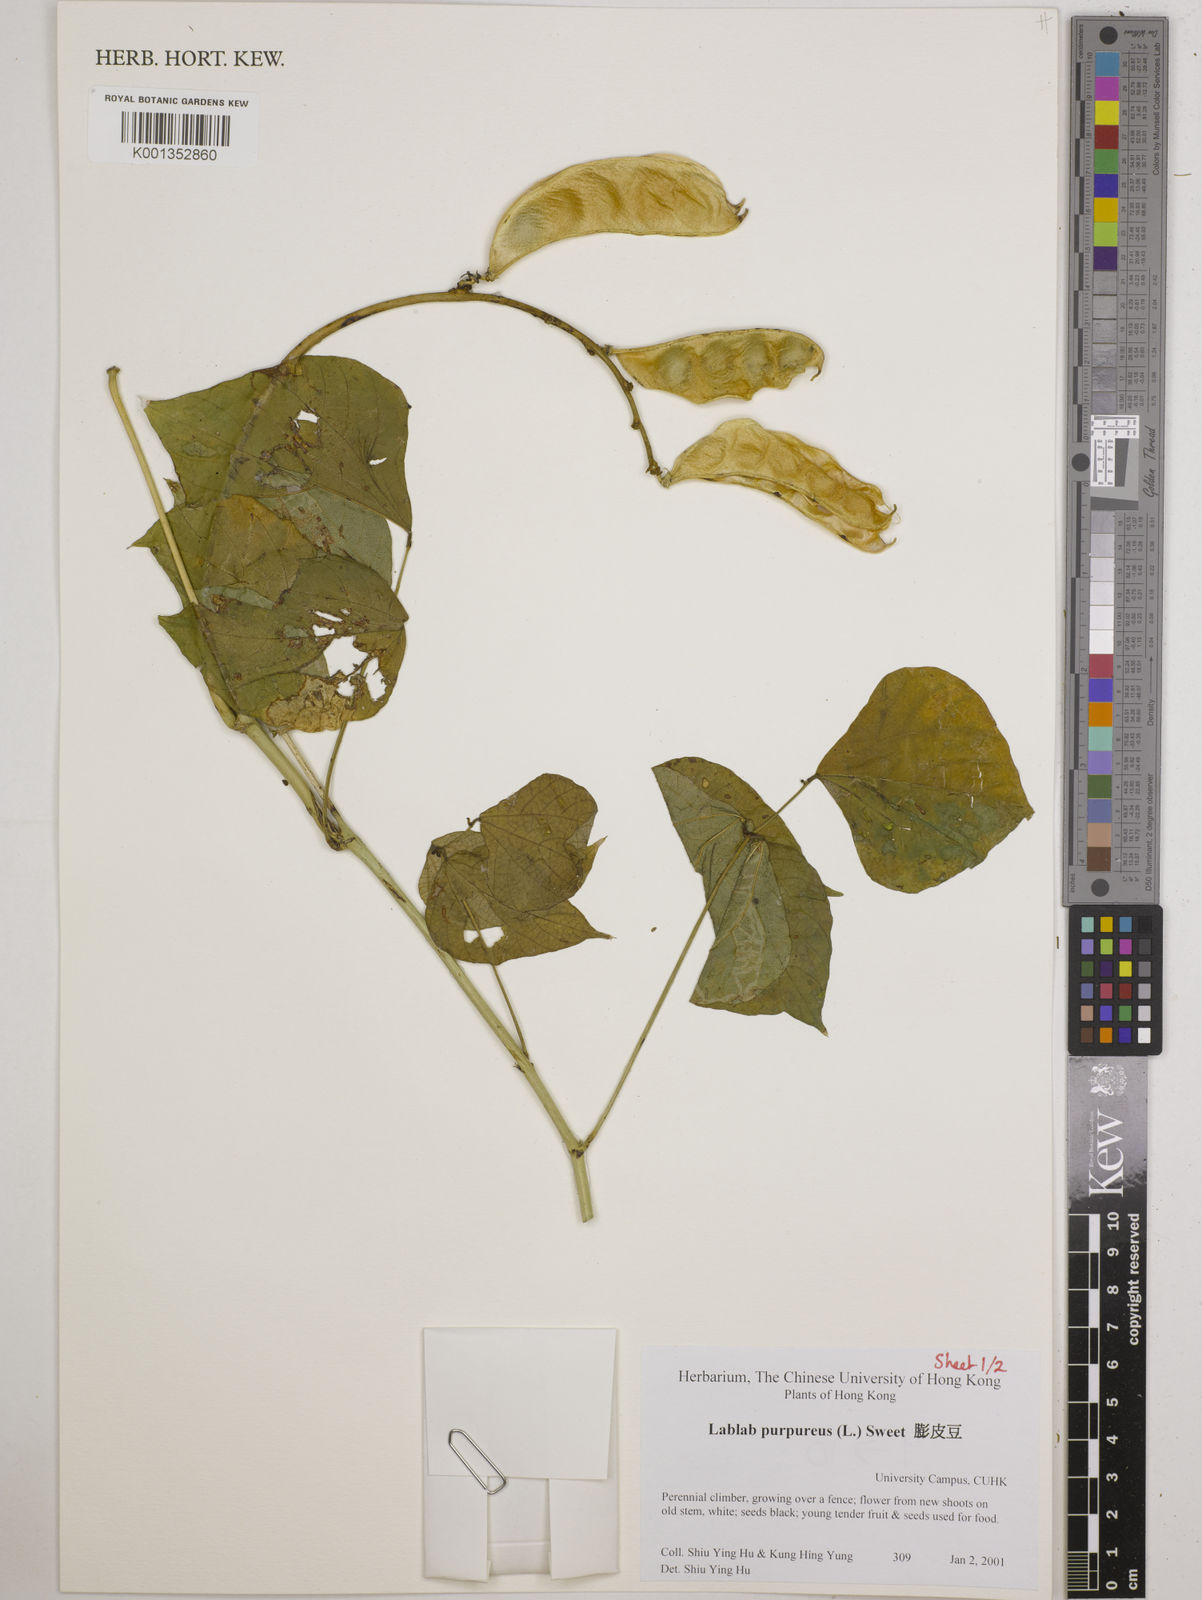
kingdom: Plantae
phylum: Tracheophyta
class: Magnoliopsida
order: Fabales
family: Fabaceae
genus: Lablab
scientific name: Lablab purpureus
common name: Lablab-bean
